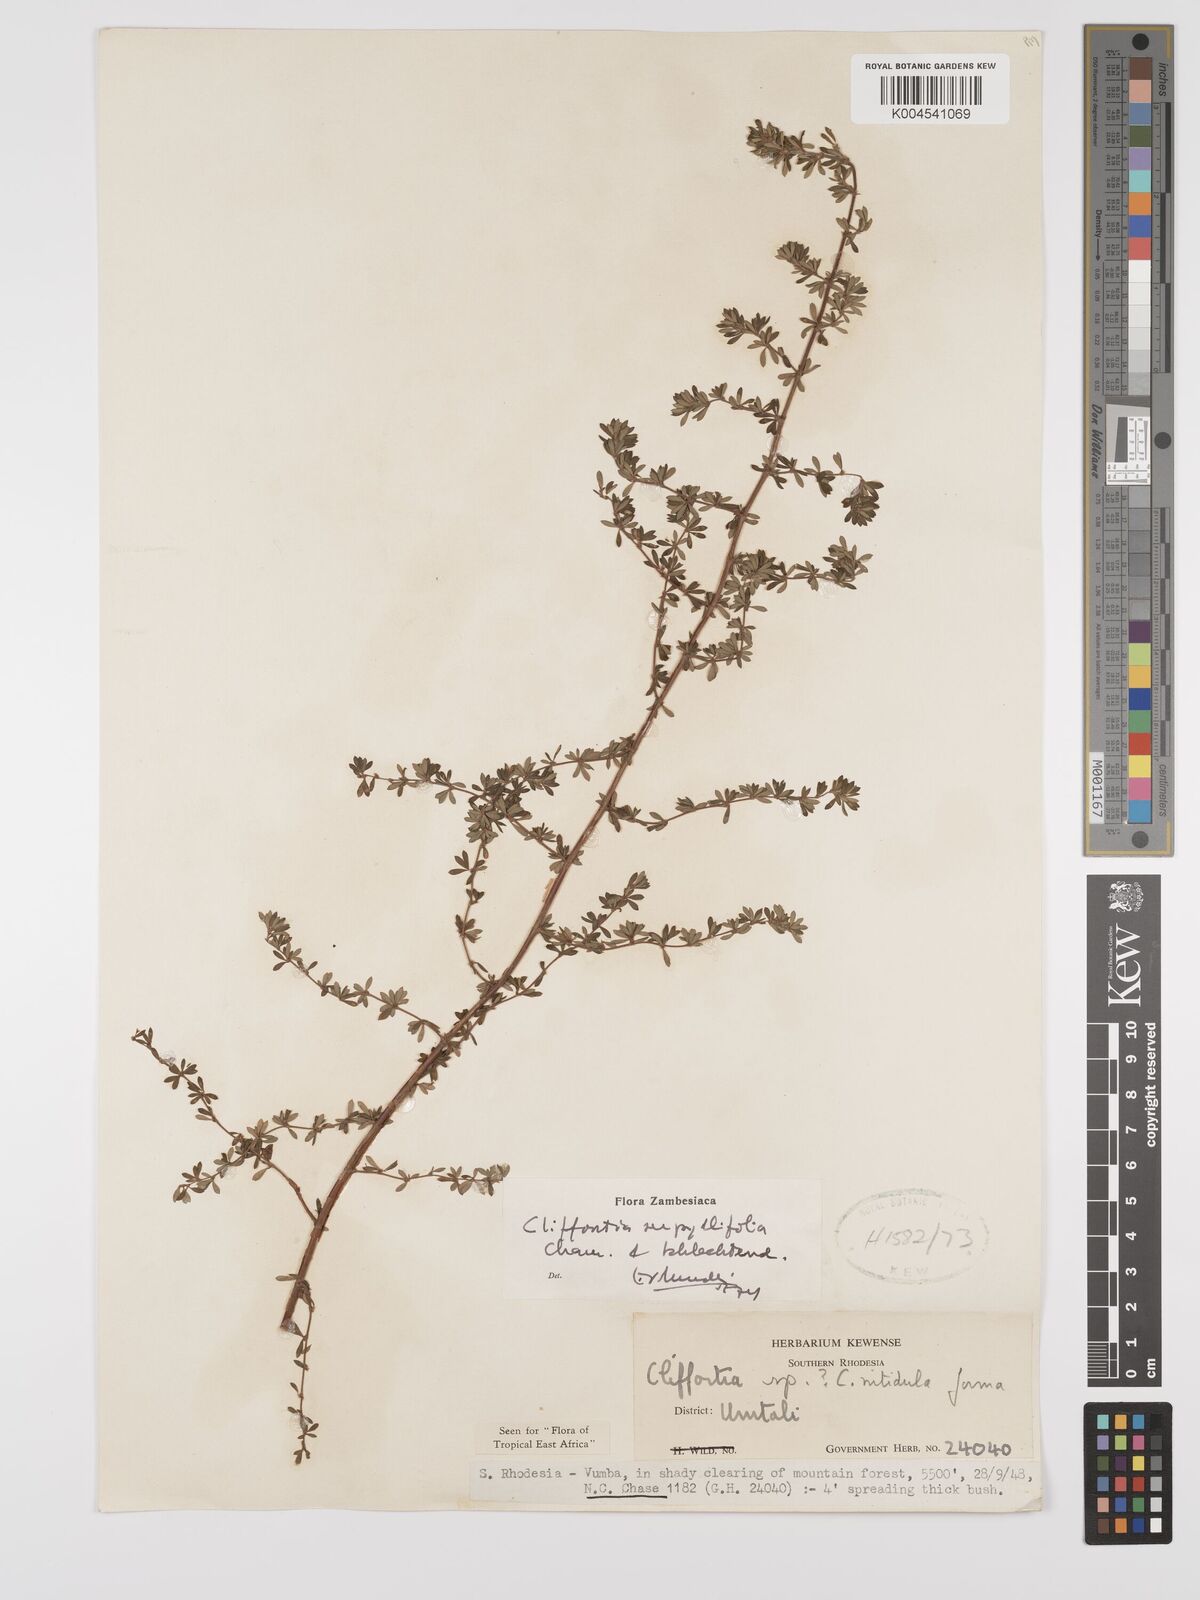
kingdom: Plantae
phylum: Tracheophyta
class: Magnoliopsida
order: Rosales
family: Rosaceae
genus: Cliffortia
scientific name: Cliffortia
